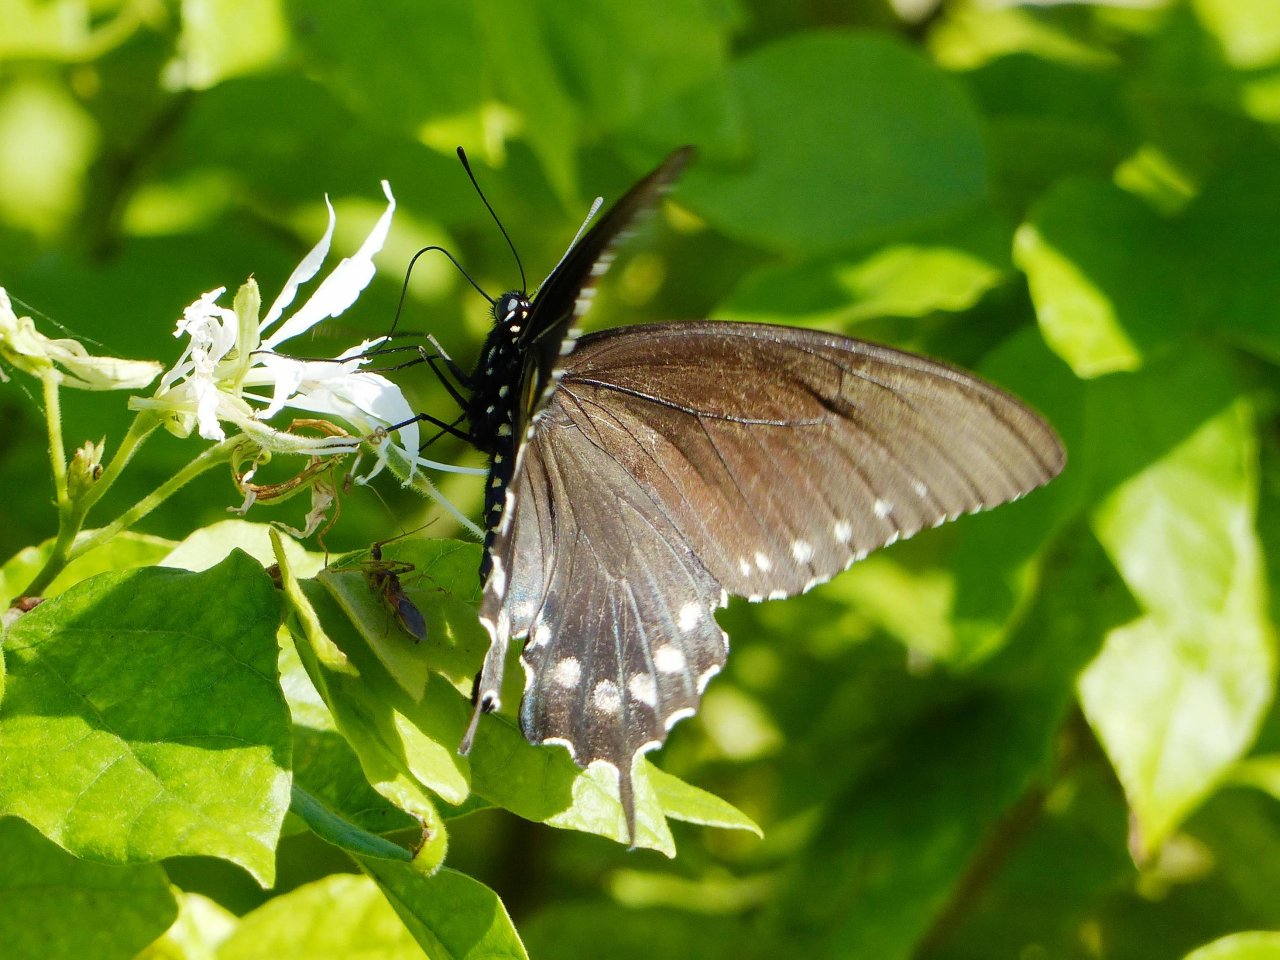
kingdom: Animalia
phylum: Arthropoda
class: Insecta
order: Lepidoptera
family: Papilionidae
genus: Battus
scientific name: Battus philenor
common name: Pipevine Swallowtail
